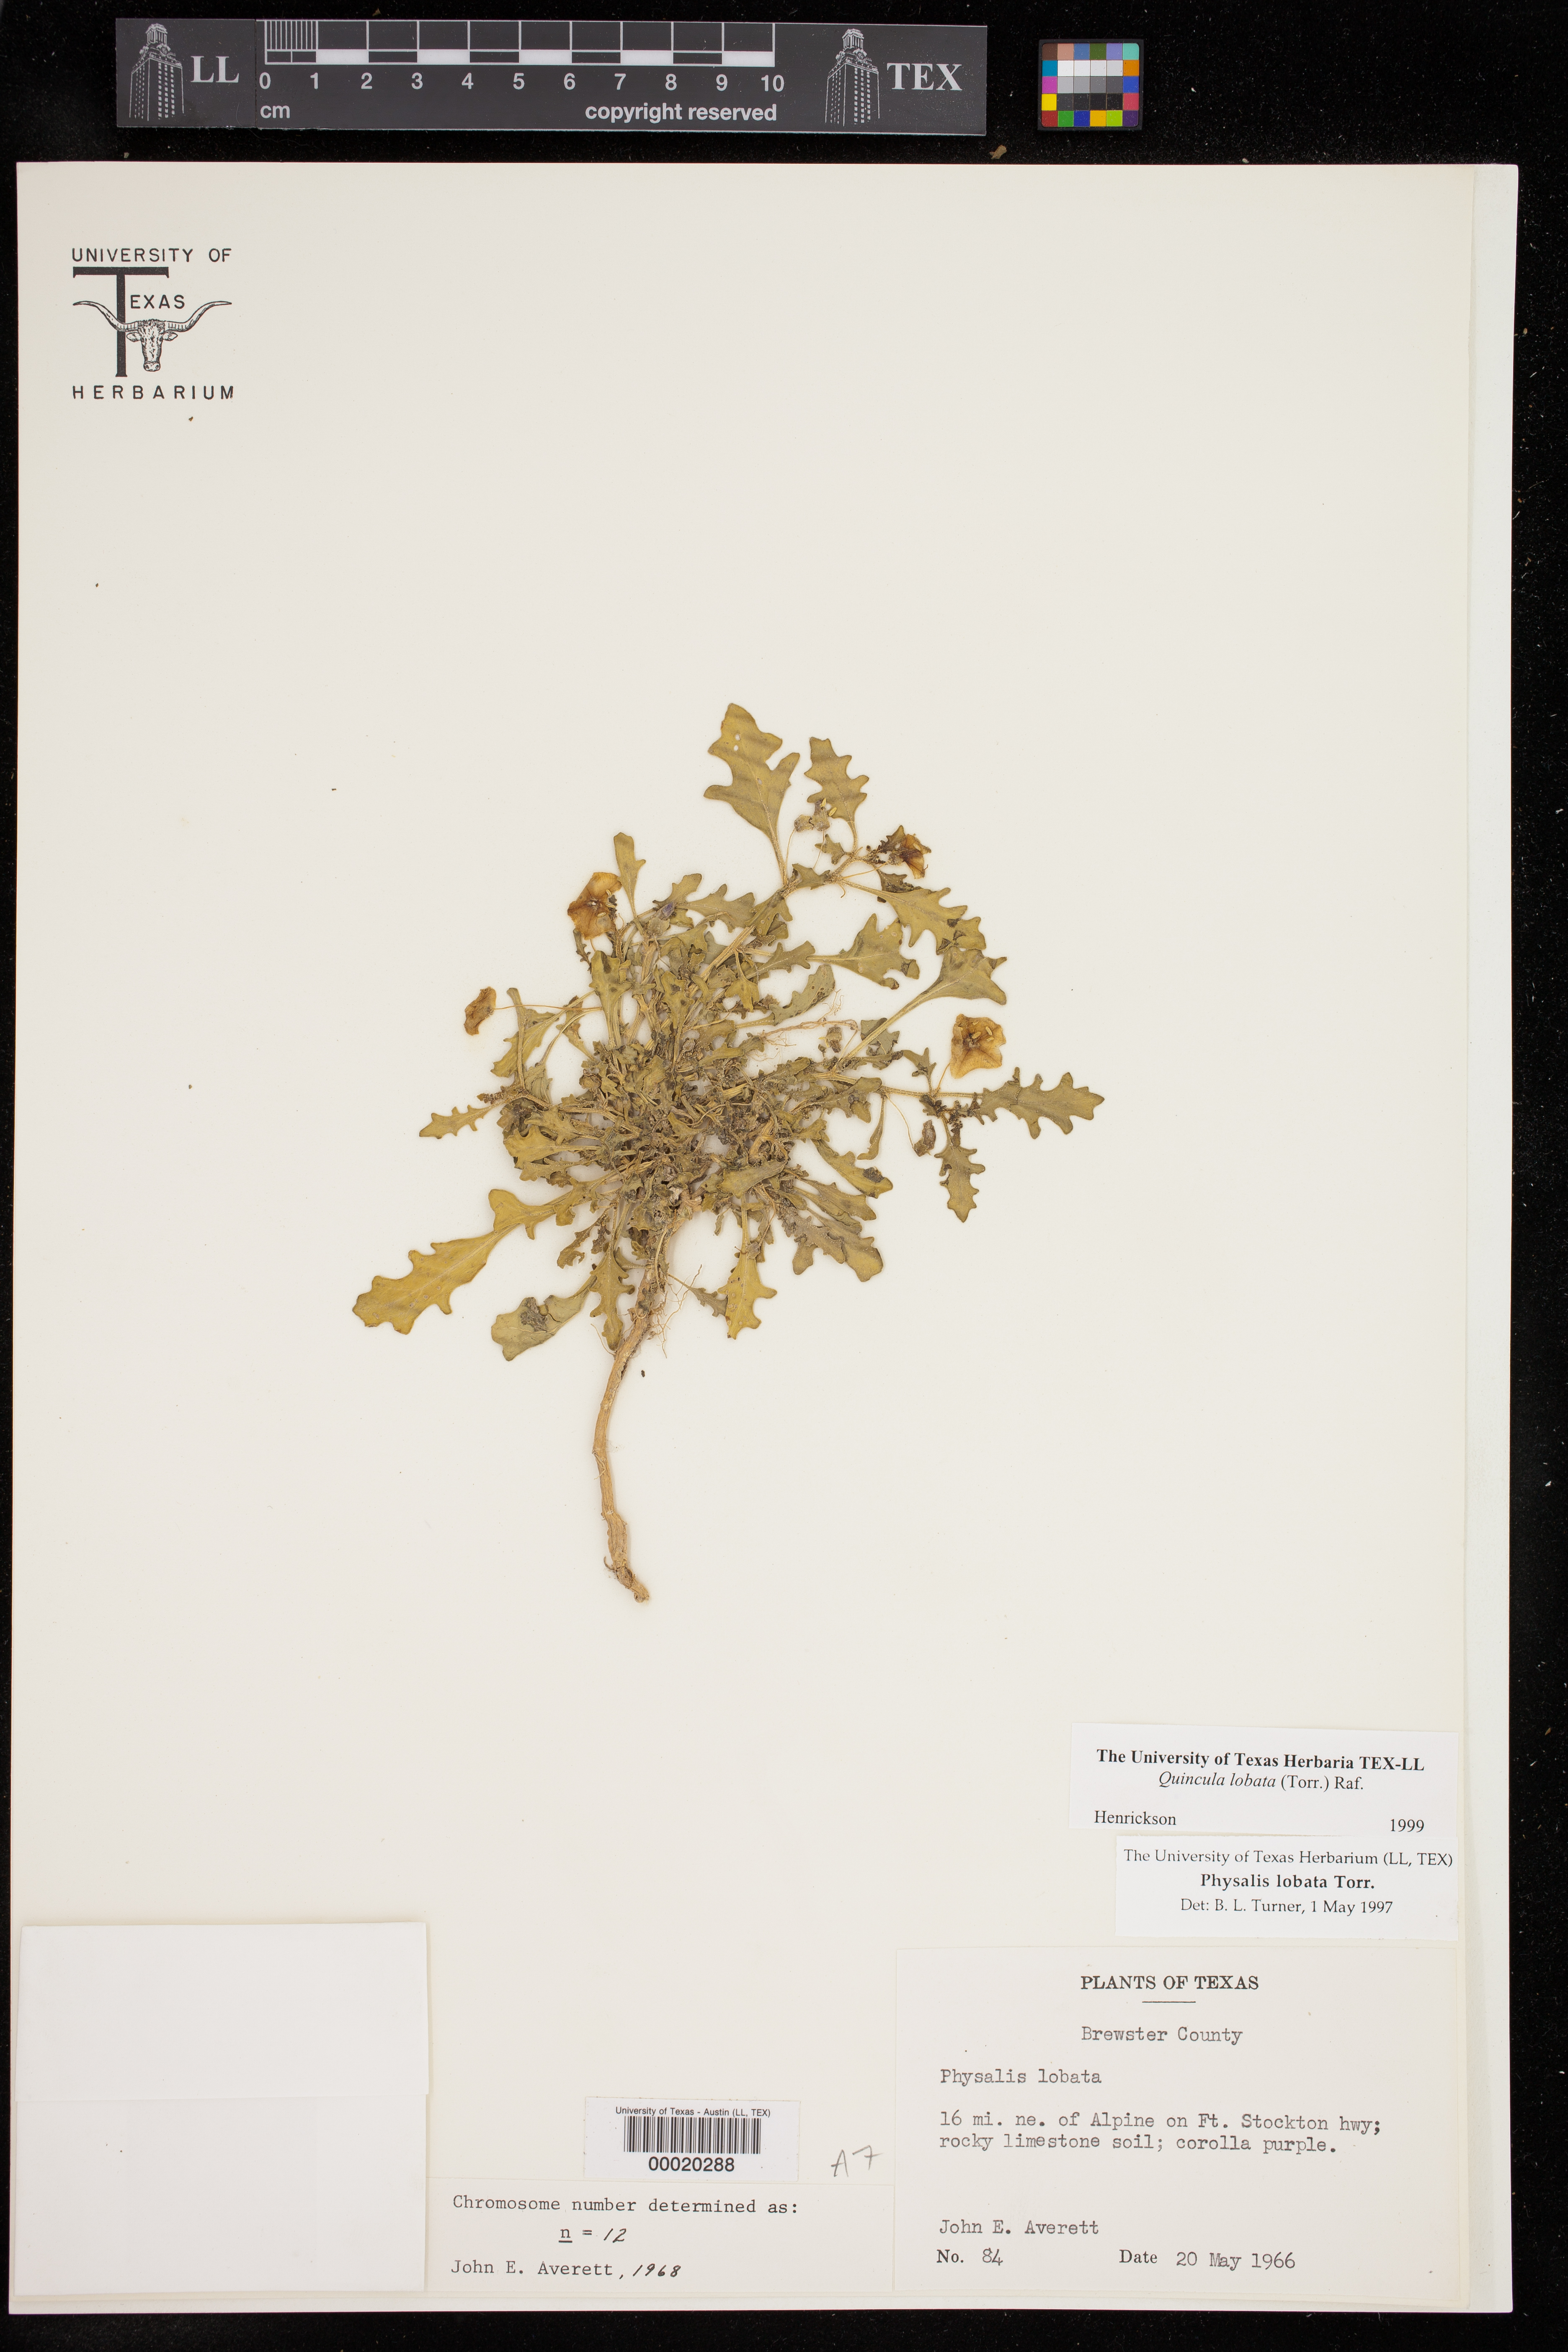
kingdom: Plantae
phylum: Tracheophyta
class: Magnoliopsida
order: Solanales
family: Solanaceae
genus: Quincula
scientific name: Quincula lobata
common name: Purple-ground-cherry
